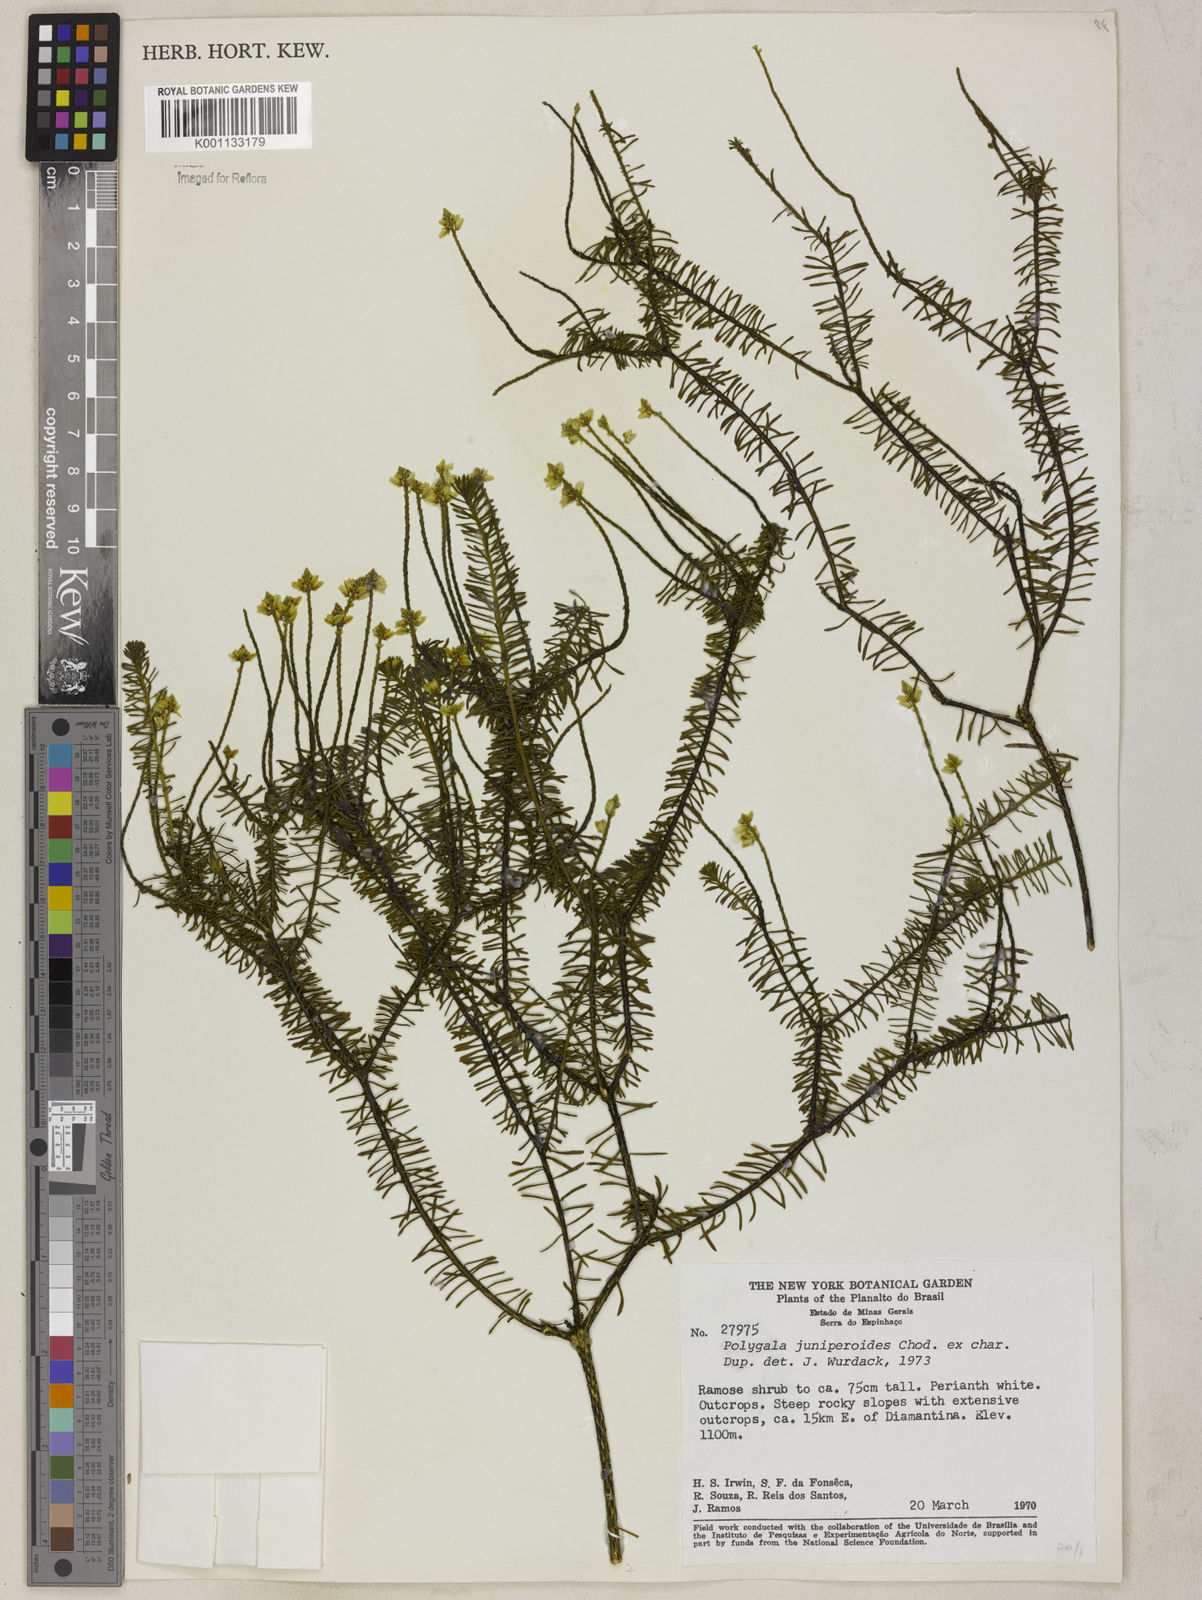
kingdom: Plantae
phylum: Tracheophyta
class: Magnoliopsida
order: Fabales
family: Polygalaceae
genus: Polygala
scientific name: Polygala pseudoerica
